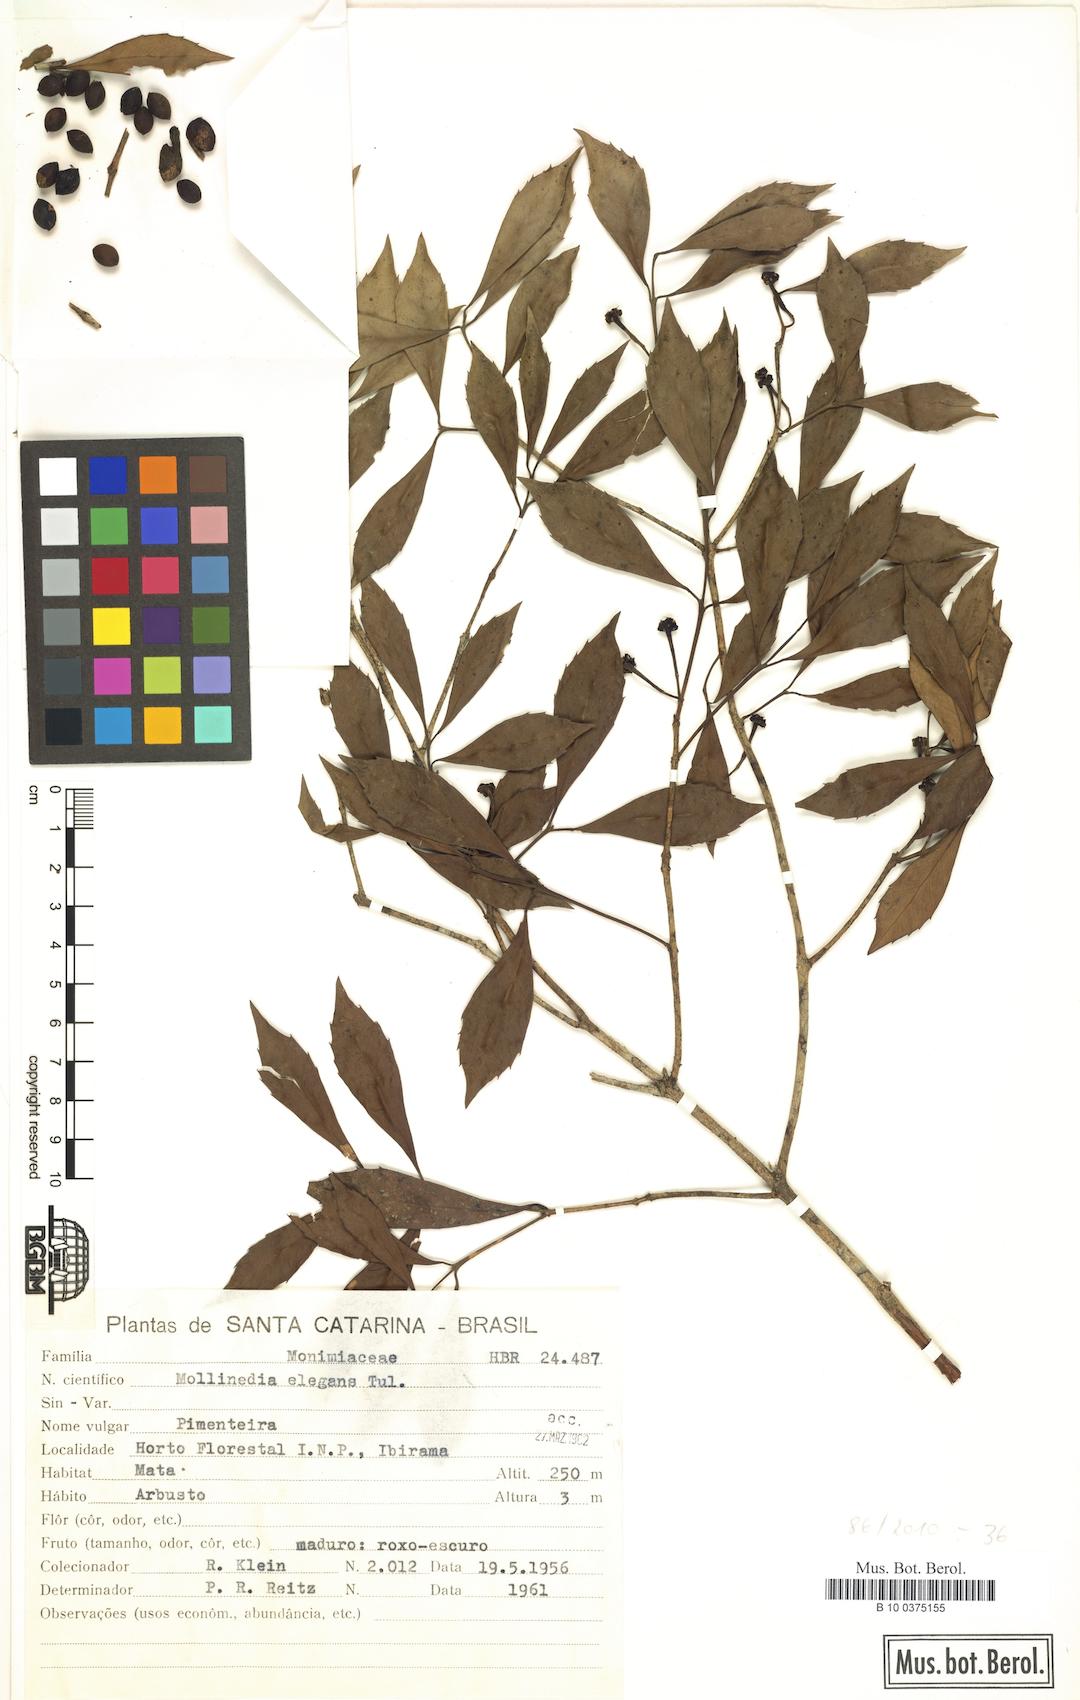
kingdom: Plantae
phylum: Tracheophyta
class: Magnoliopsida
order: Laurales
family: Monimiaceae
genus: Mollinedia
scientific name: Mollinedia elegans
